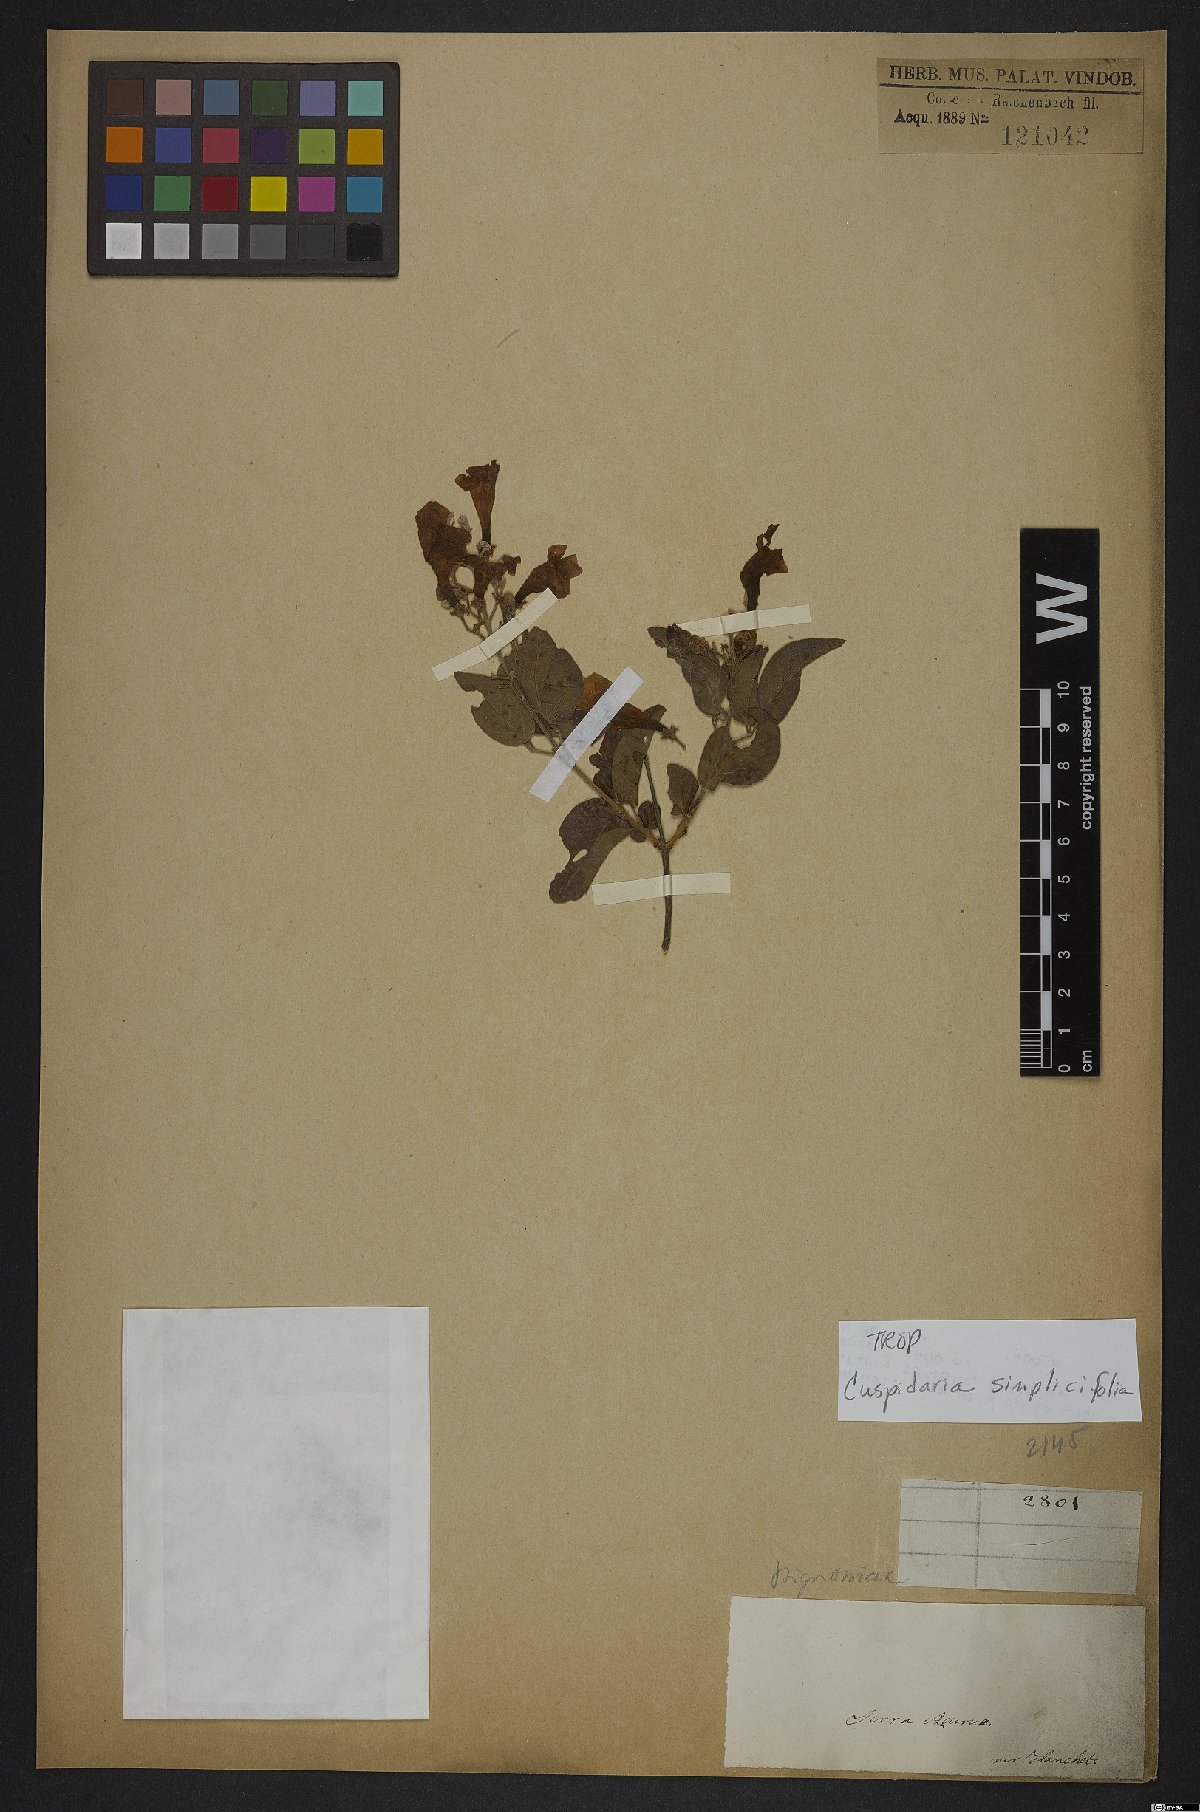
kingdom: Plantae
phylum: Tracheophyta
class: Magnoliopsida
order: Lamiales
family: Bignoniaceae
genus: Cuspidaria
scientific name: Cuspidaria simplicifolia
